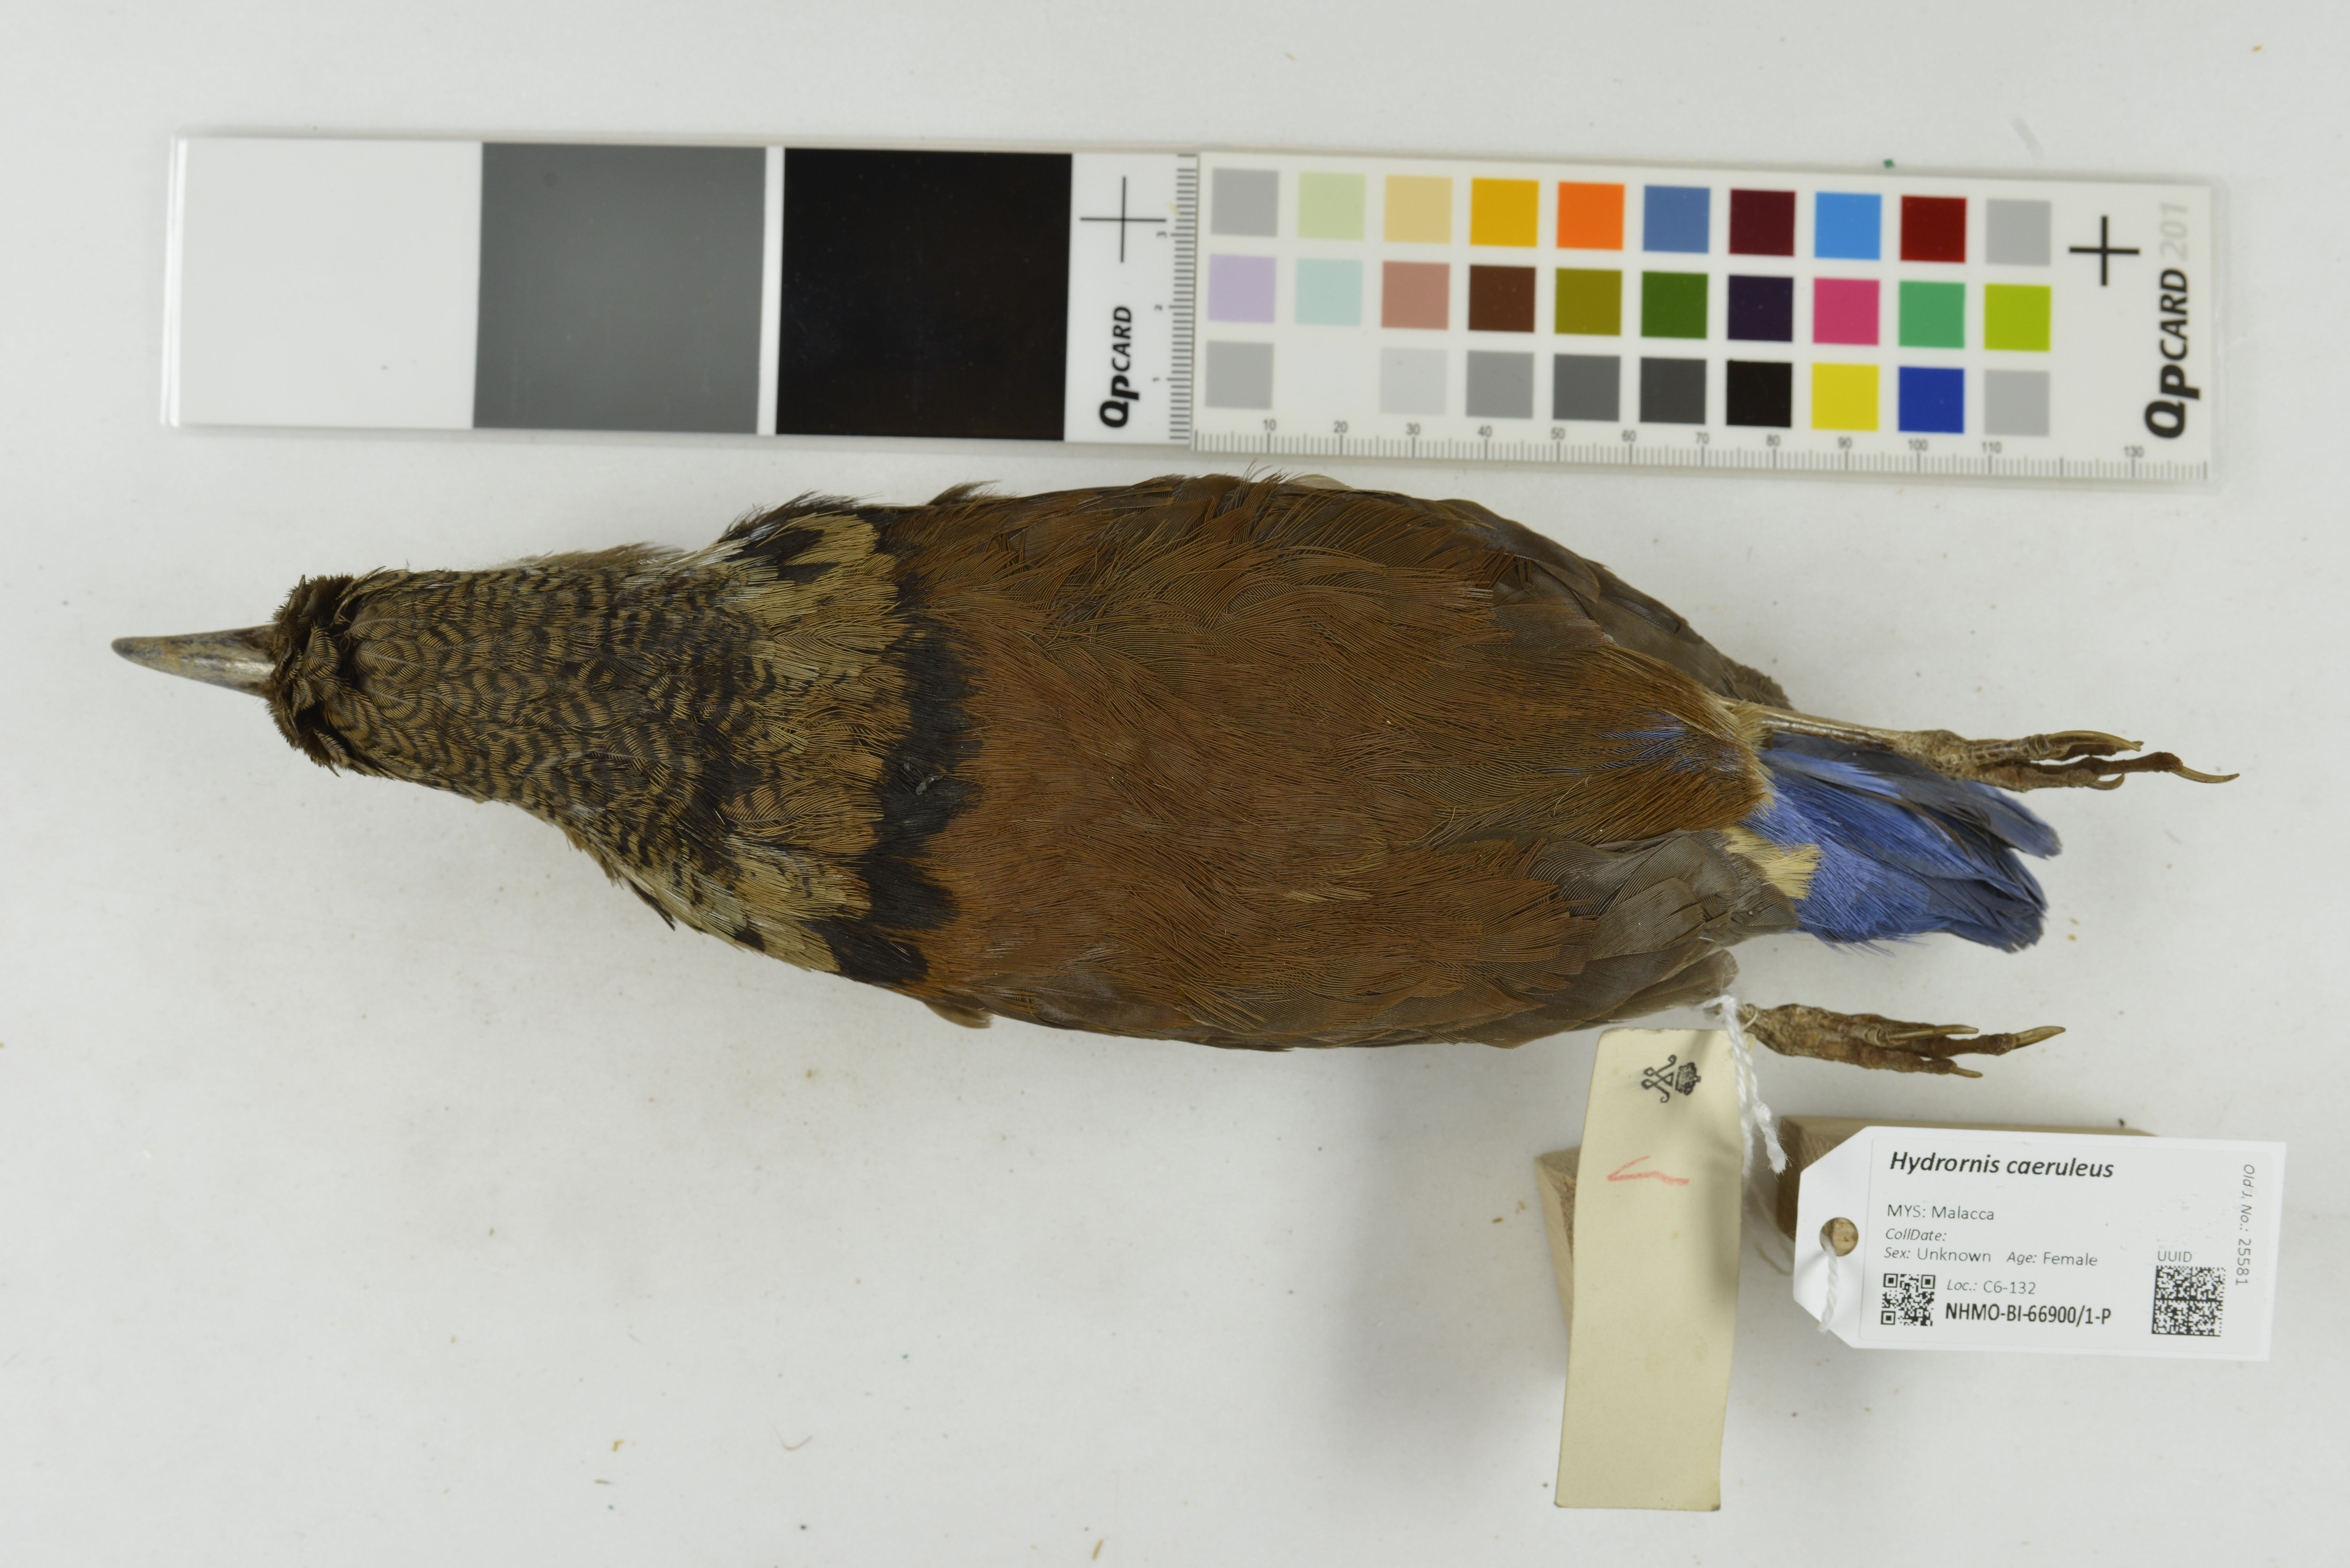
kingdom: Animalia
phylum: Chordata
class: Aves
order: Passeriformes
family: Pittidae
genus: Pitta
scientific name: Pitta caerulea
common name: Giant pitta
